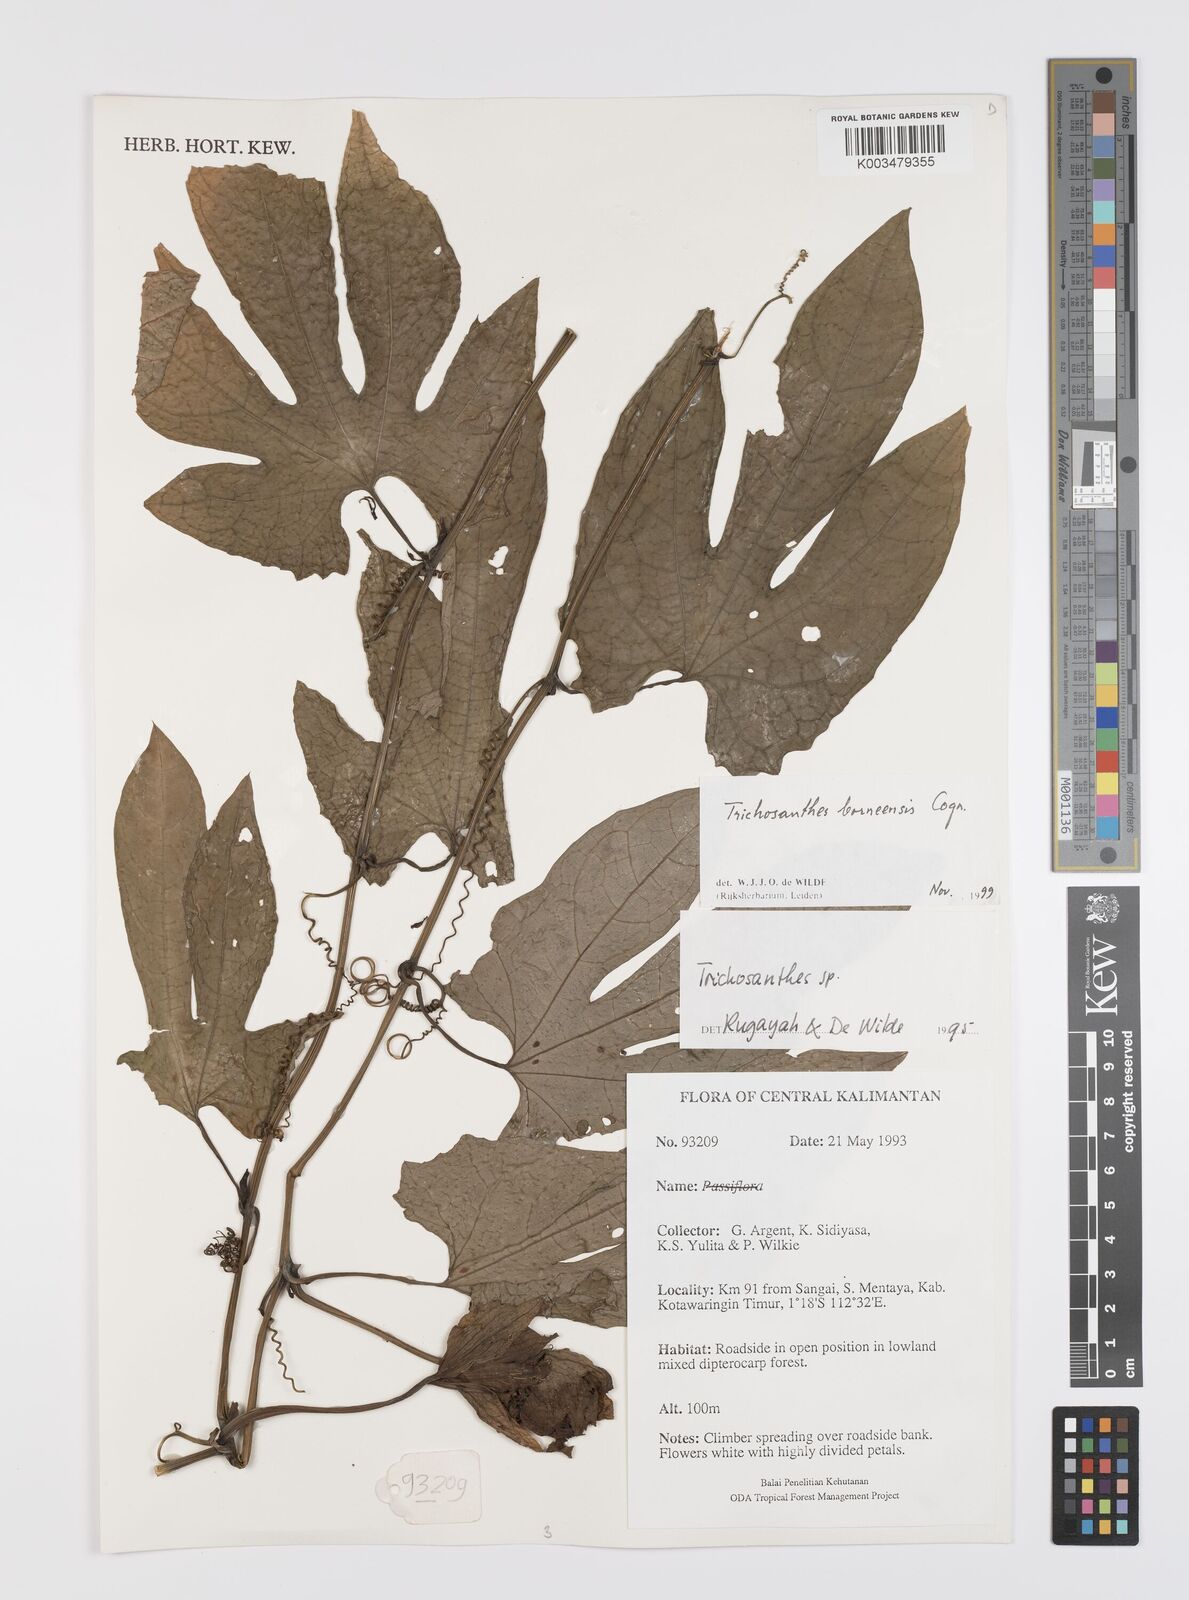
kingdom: Plantae
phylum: Tracheophyta
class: Magnoliopsida
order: Cucurbitales
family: Cucurbitaceae
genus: Trichosanthes
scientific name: Trichosanthes borneensis
